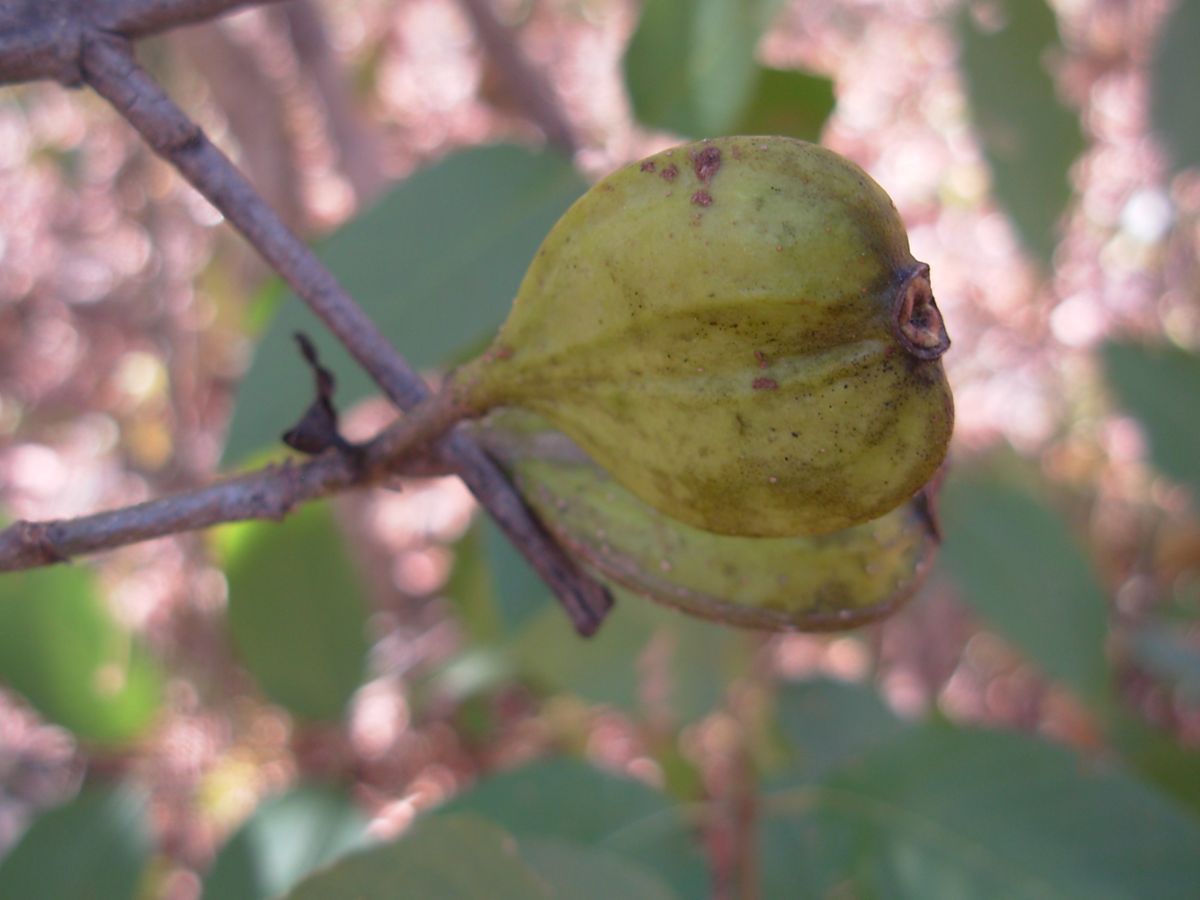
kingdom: Plantae
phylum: Tracheophyta
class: Magnoliopsida
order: Gentianales
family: Rubiaceae
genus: Coutarea
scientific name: Coutarea hexandra
